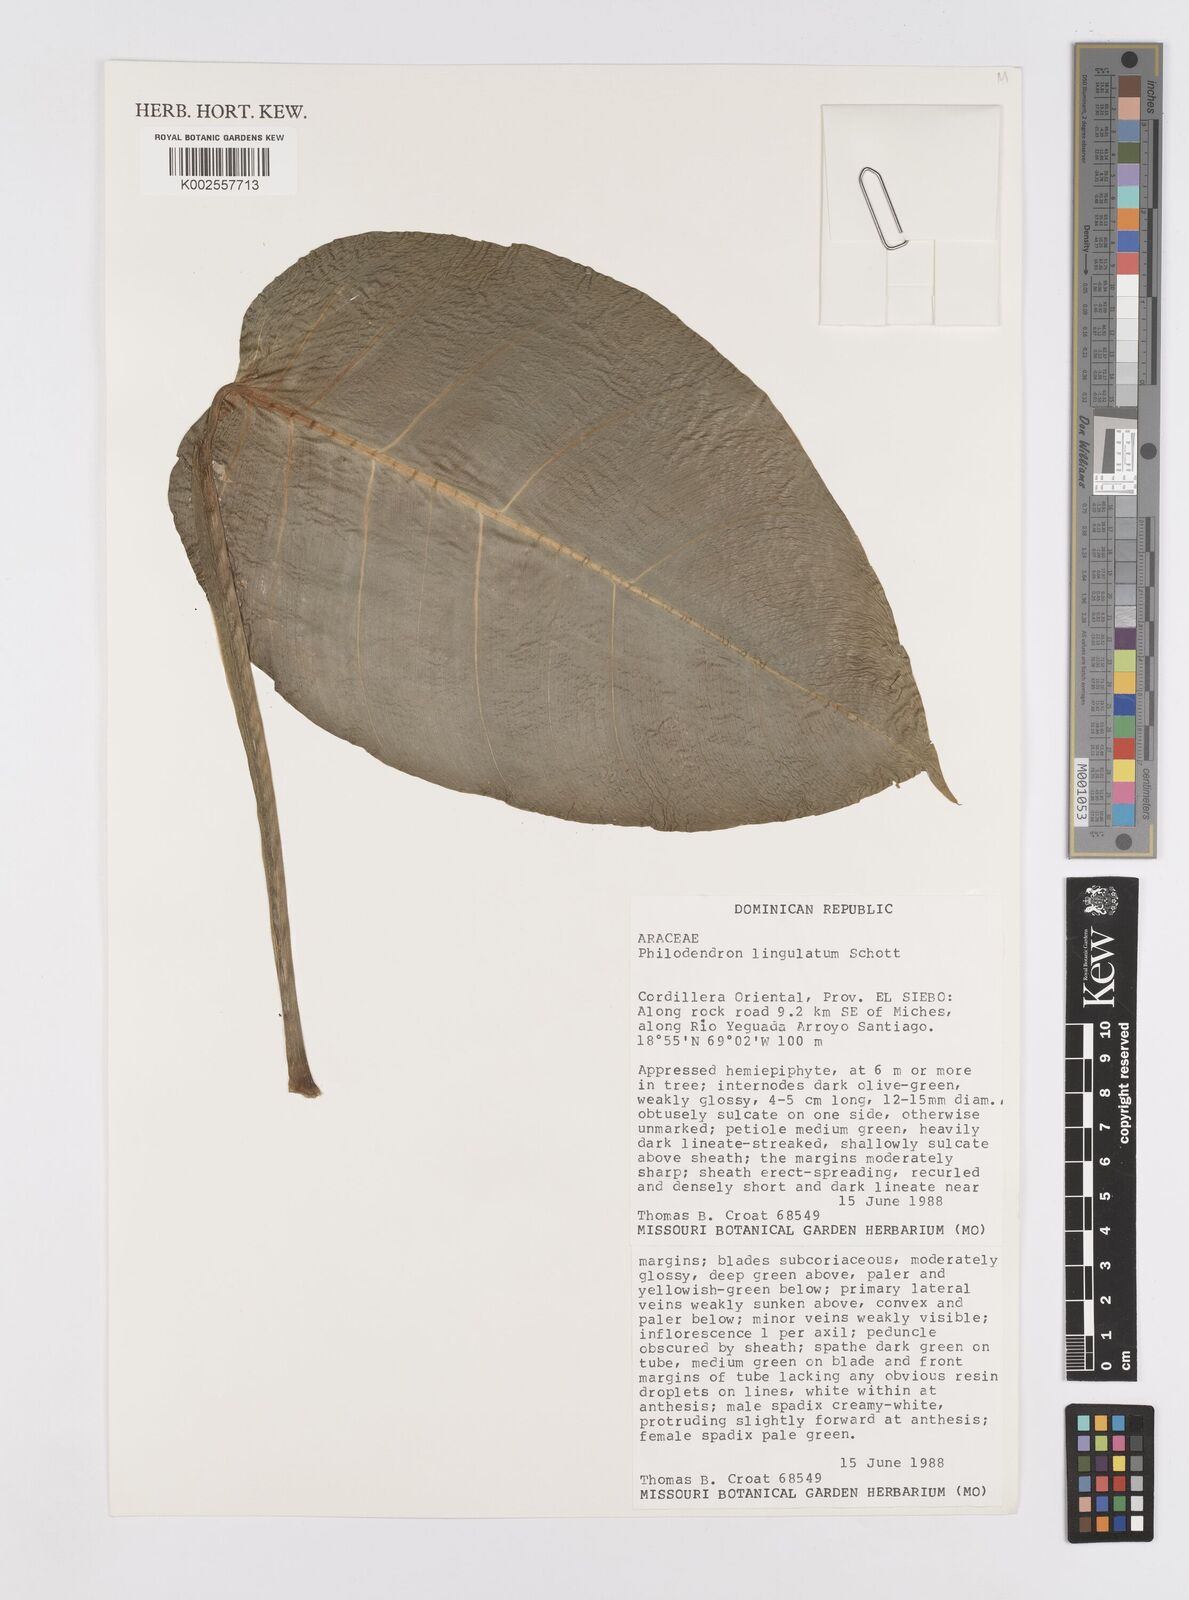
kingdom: Plantae
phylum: Tracheophyta
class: Liliopsida
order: Alismatales
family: Araceae
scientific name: Araceae
